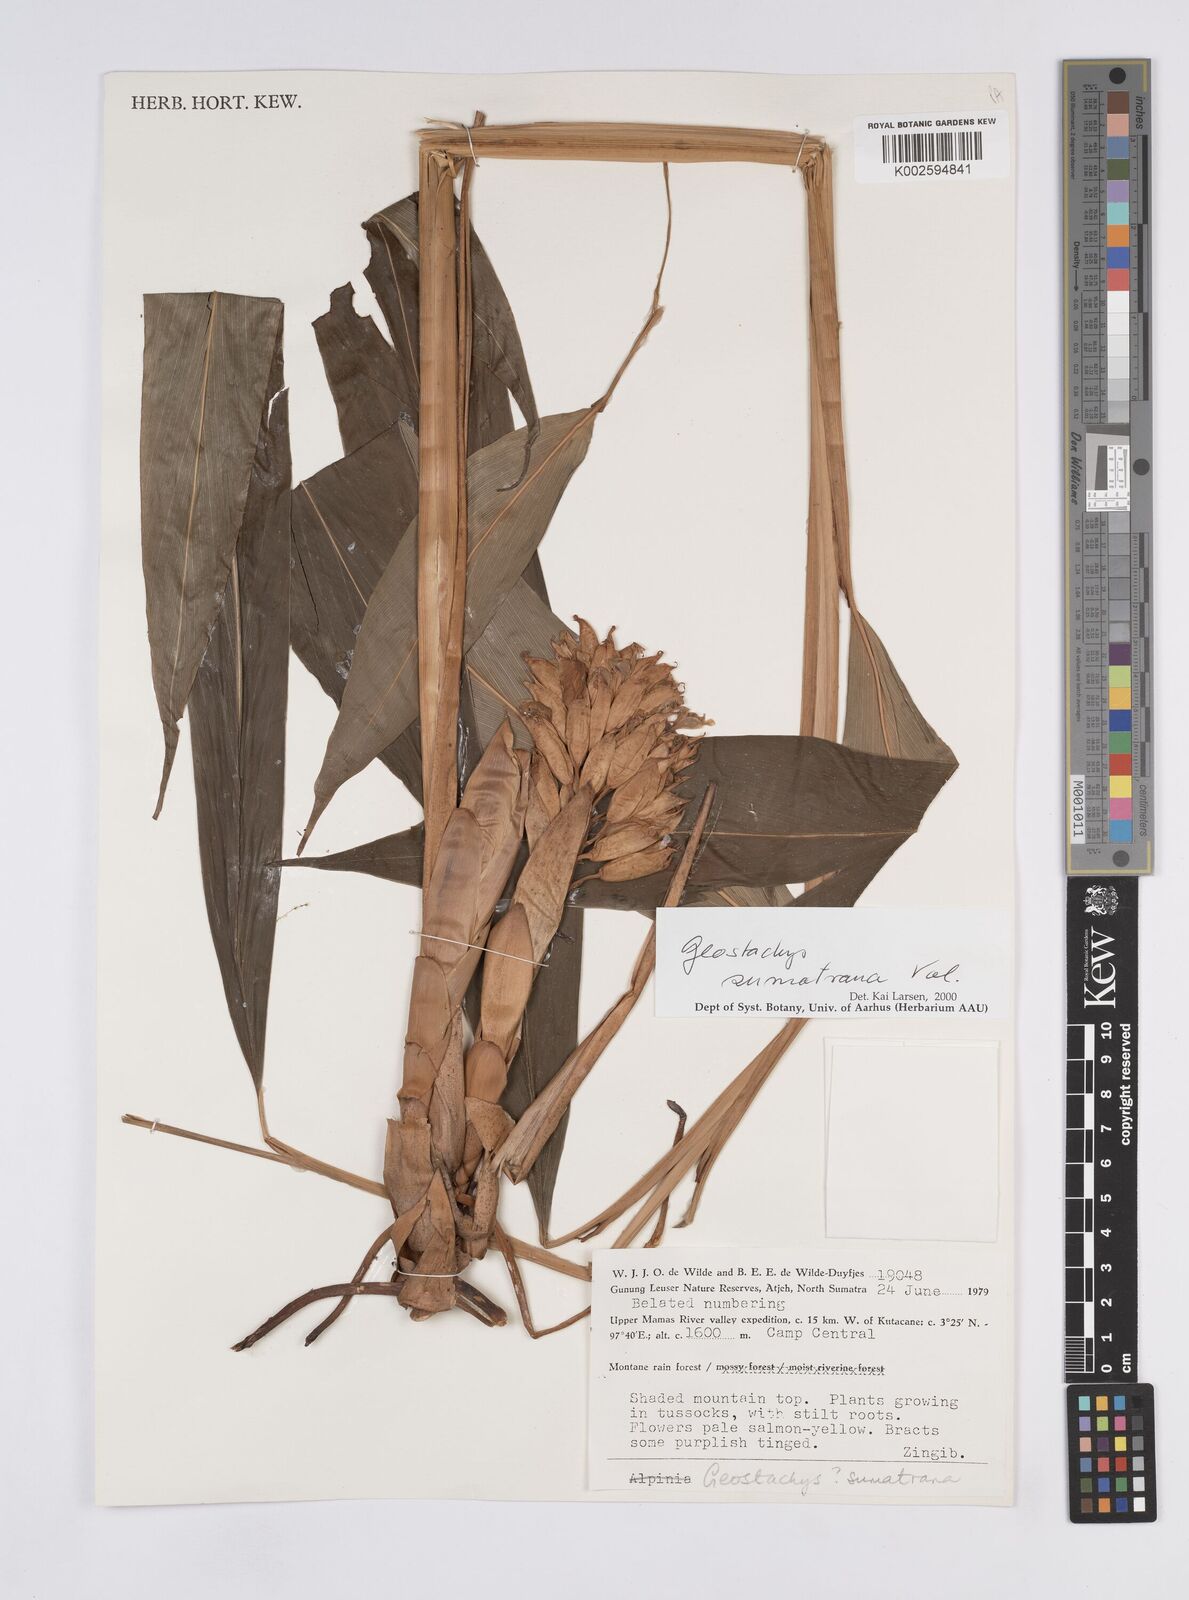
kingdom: Plantae
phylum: Tracheophyta
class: Liliopsida
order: Zingiberales
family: Zingiberaceae
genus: Geostachys
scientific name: Geostachys sumatrana
